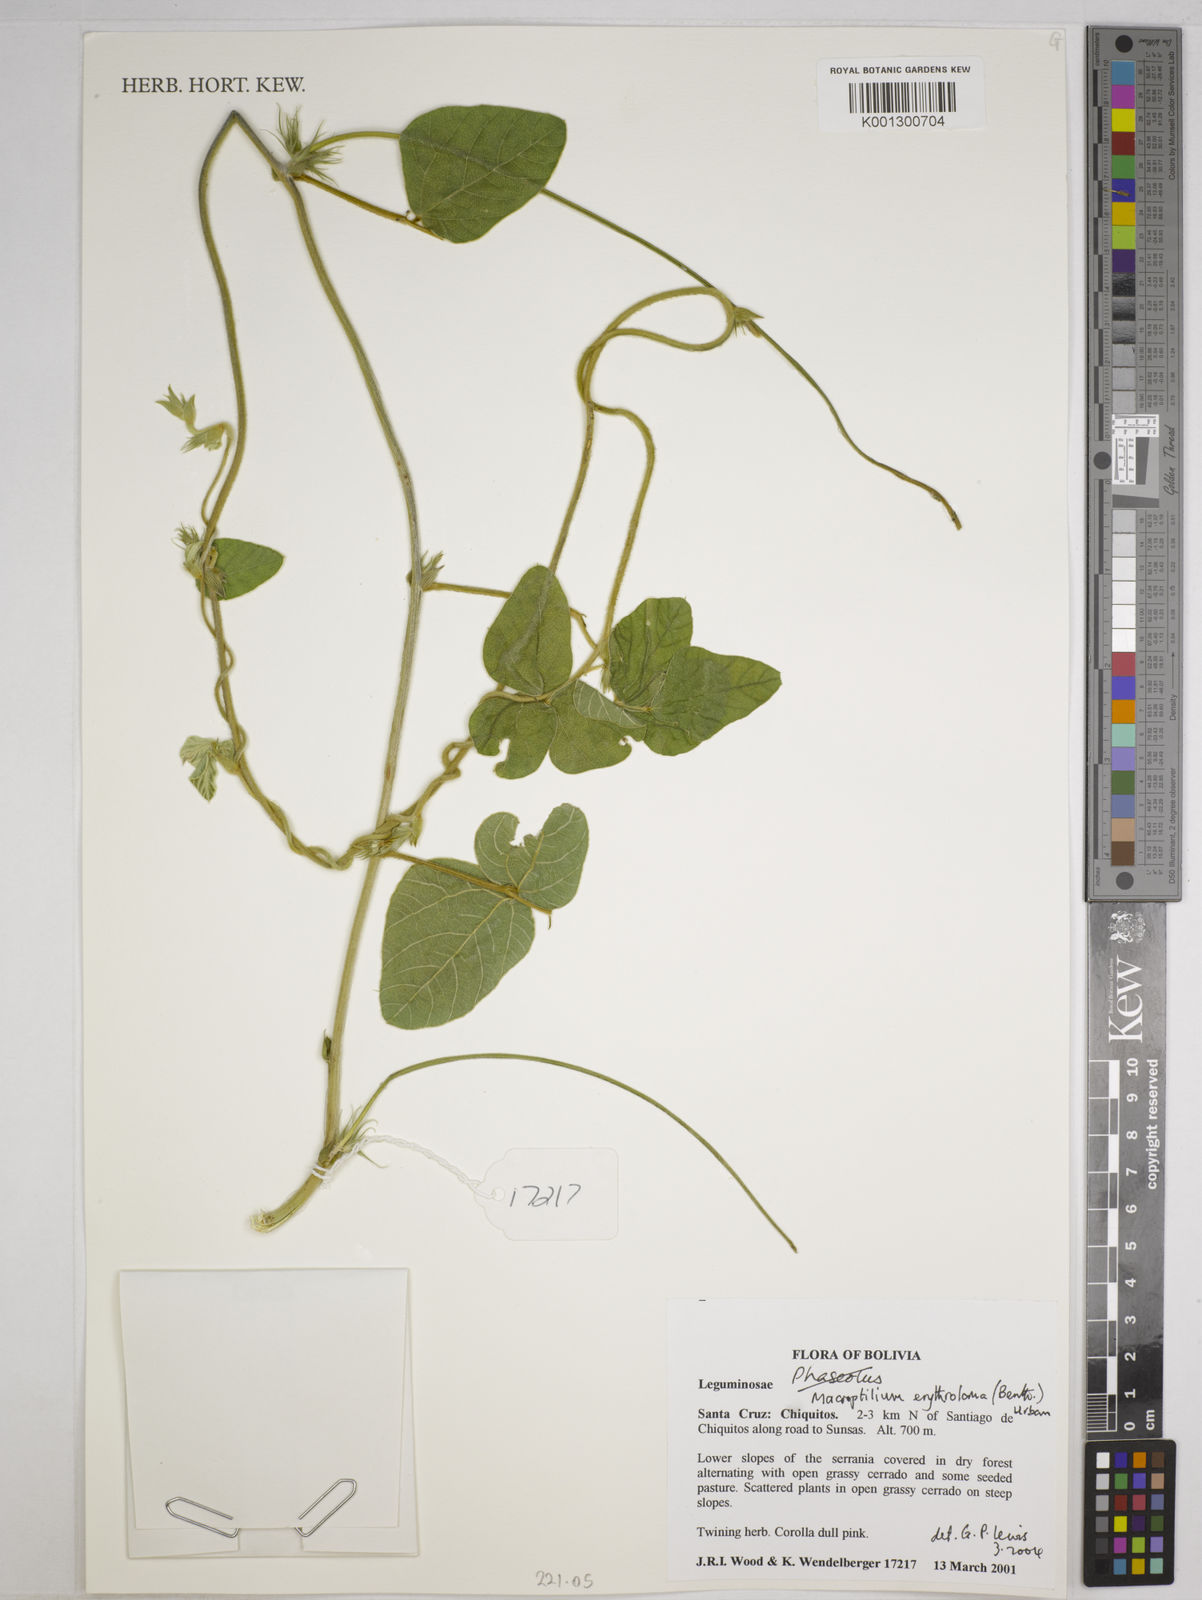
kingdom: Plantae
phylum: Tracheophyta
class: Magnoliopsida
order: Fabales
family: Fabaceae
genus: Macroptilium
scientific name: Macroptilium erythroloma
